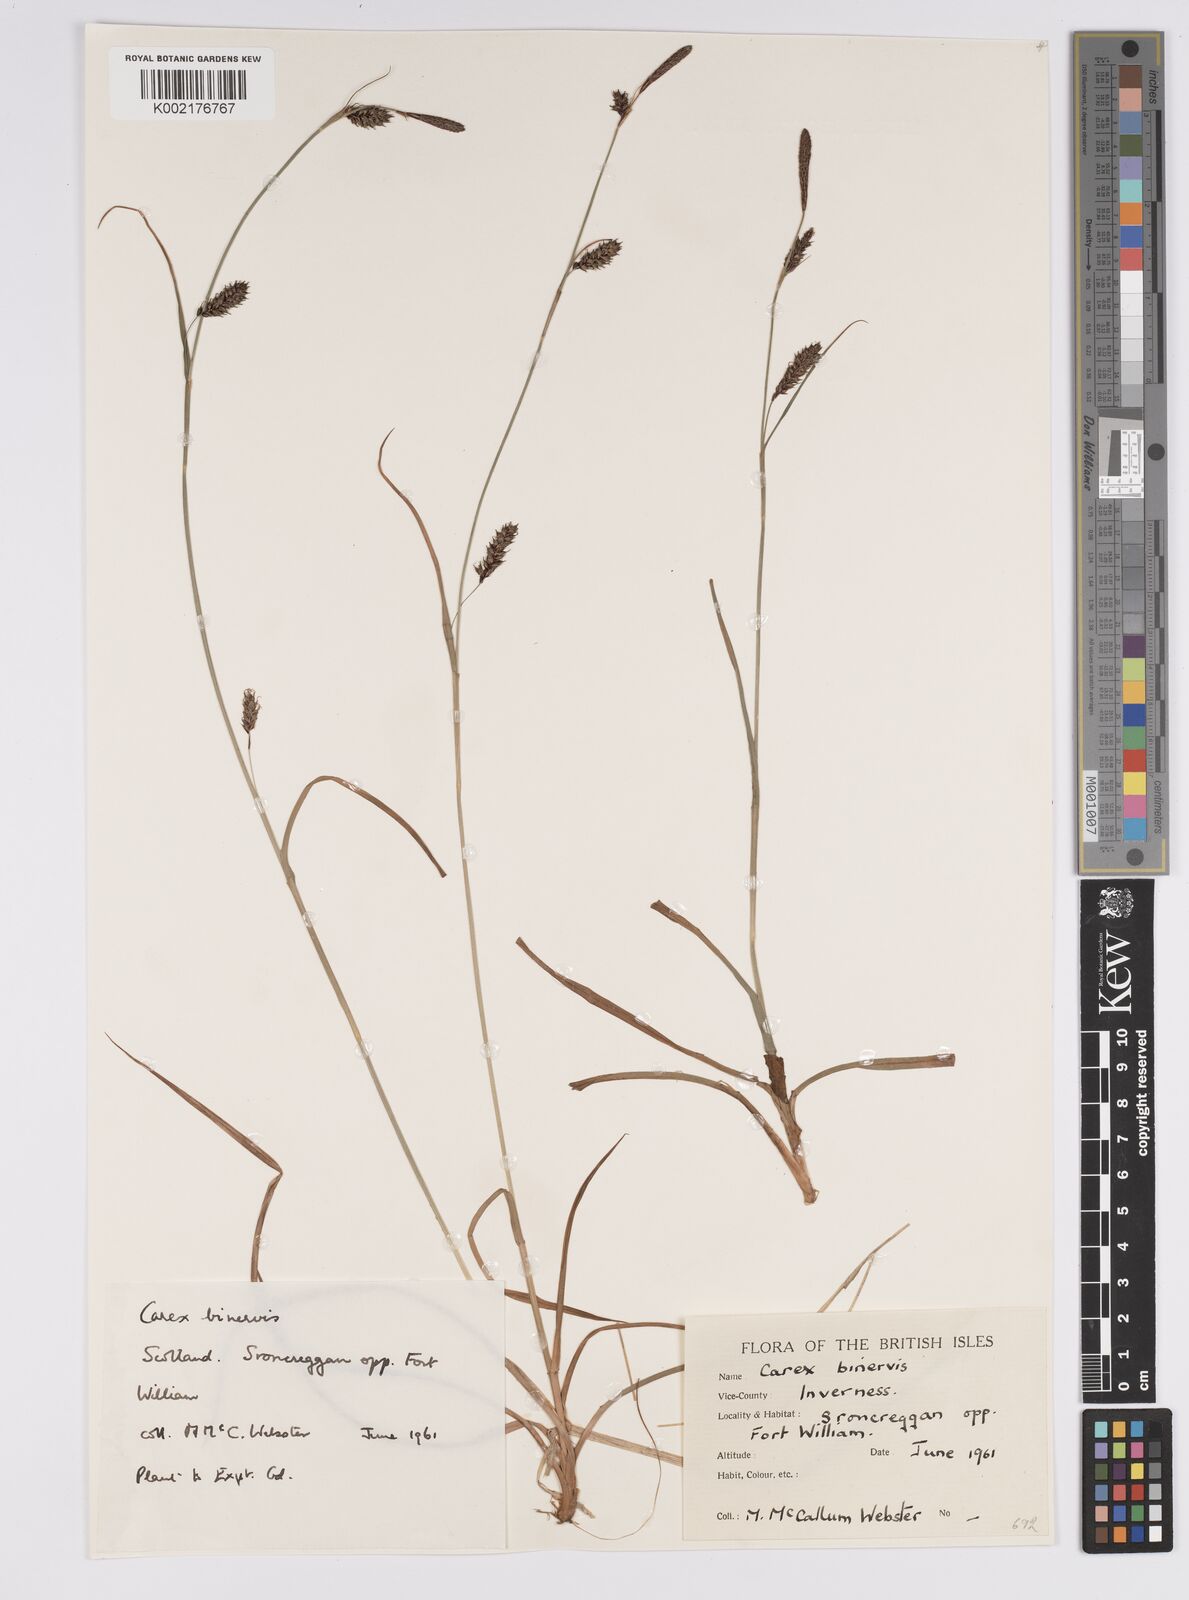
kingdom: Plantae
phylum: Tracheophyta
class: Liliopsida
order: Poales
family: Cyperaceae
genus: Carex
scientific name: Carex binervis
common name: Green-ribbed sedge
